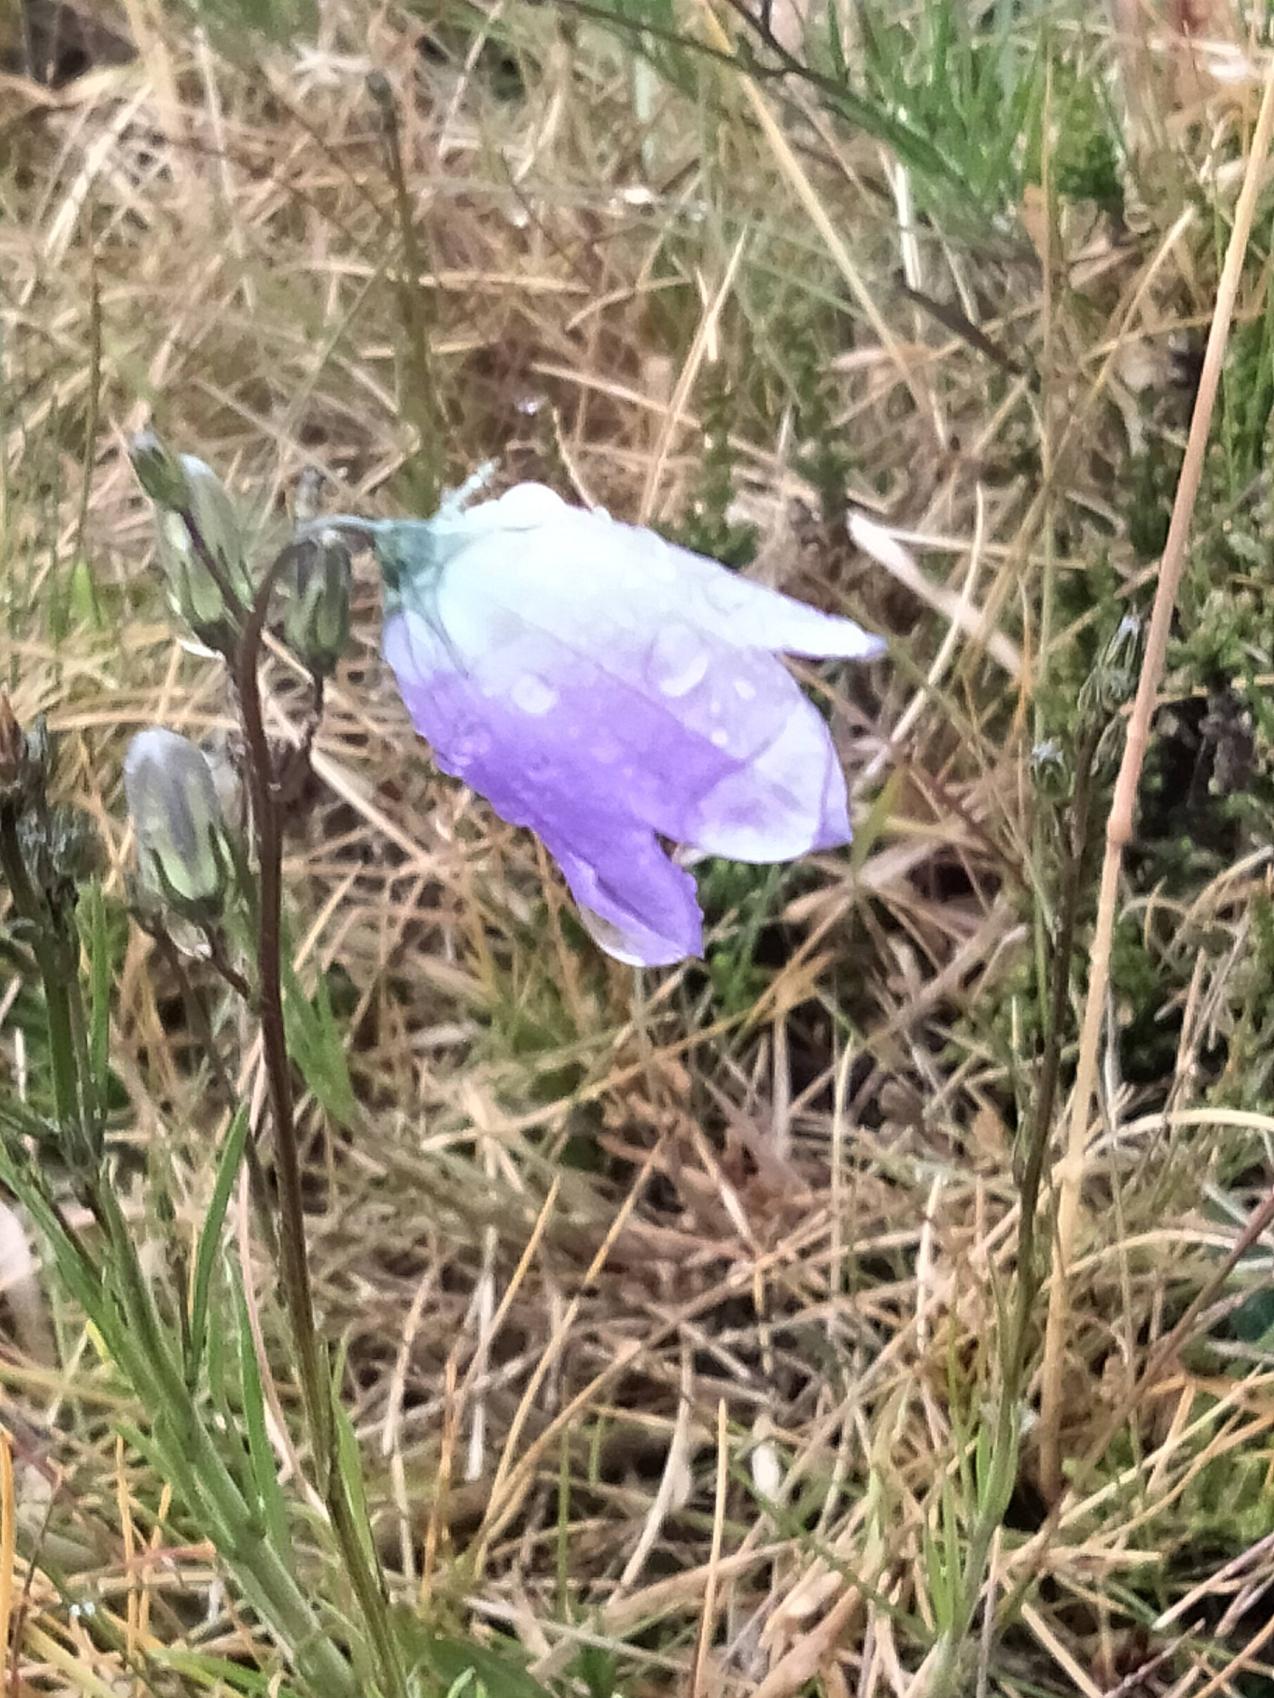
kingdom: Plantae
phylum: Tracheophyta
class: Magnoliopsida
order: Asterales
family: Campanulaceae
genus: Campanula
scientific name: Campanula rotundifolia
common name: Liden klokke
